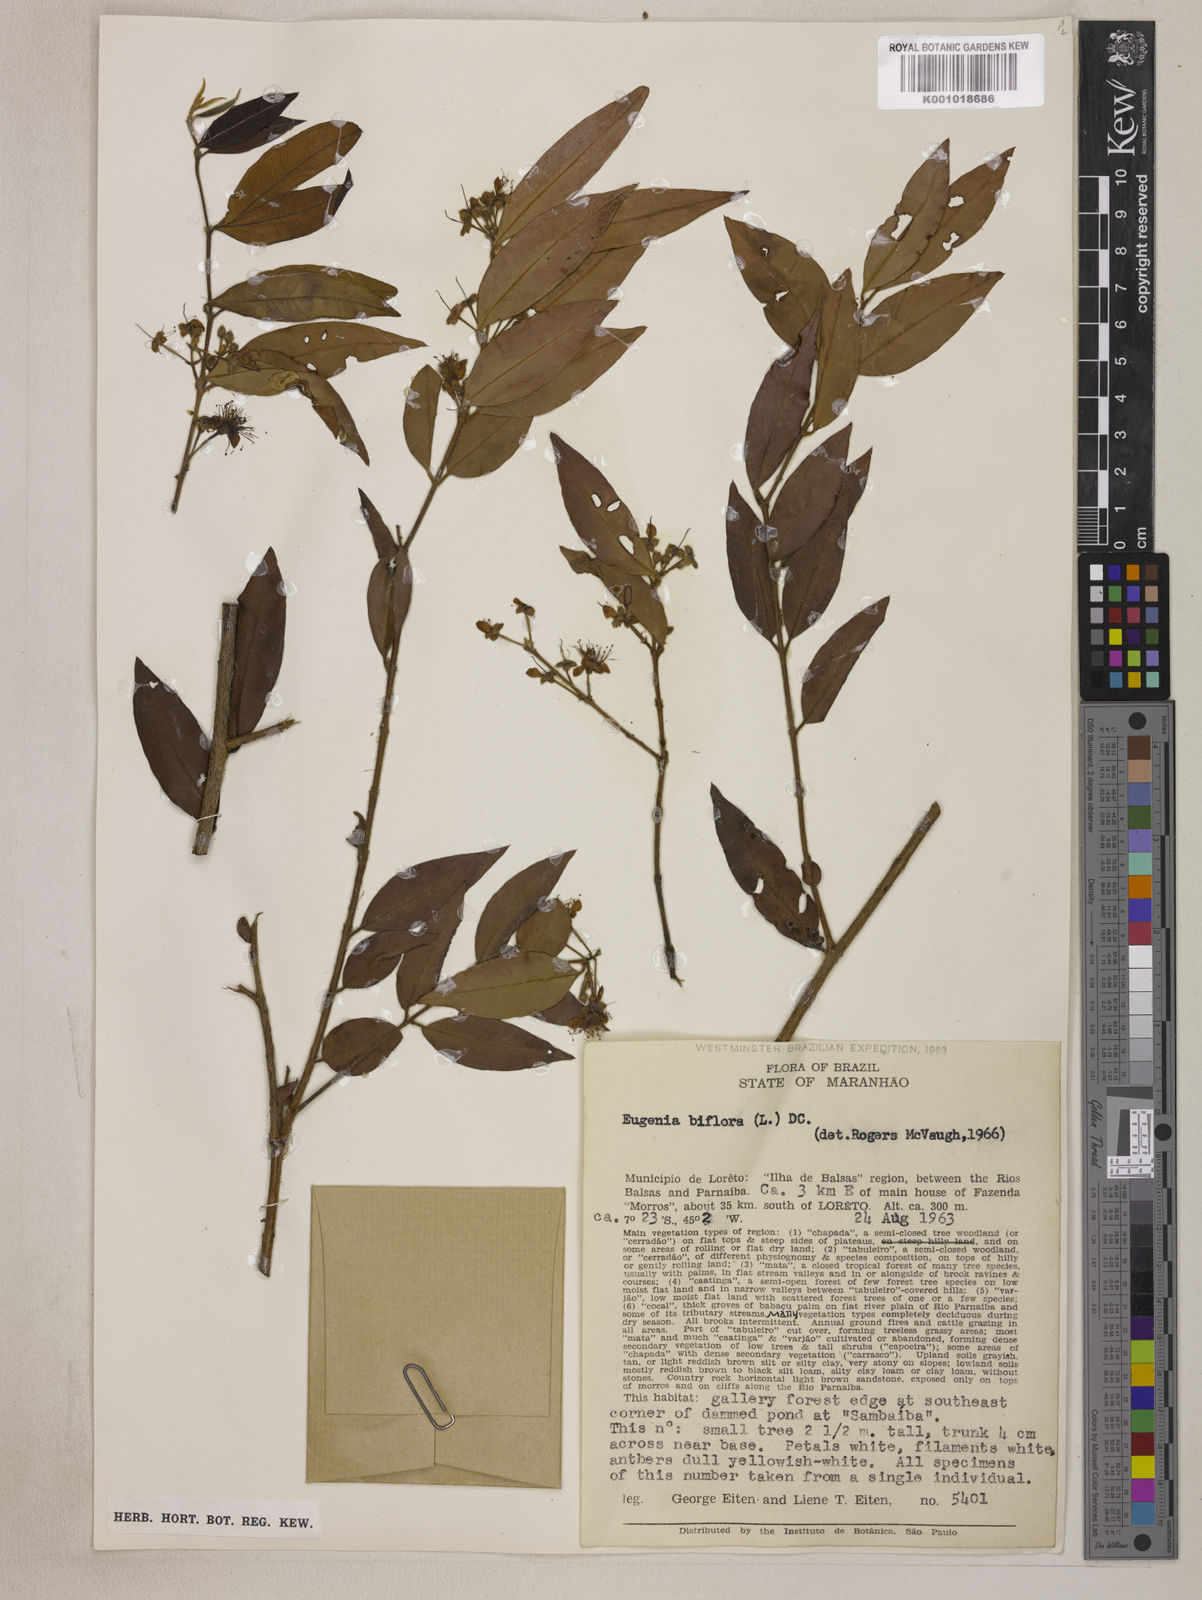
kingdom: Plantae
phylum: Tracheophyta
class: Magnoliopsida
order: Myrtales
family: Myrtaceae
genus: Eugenia
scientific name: Eugenia biflora
